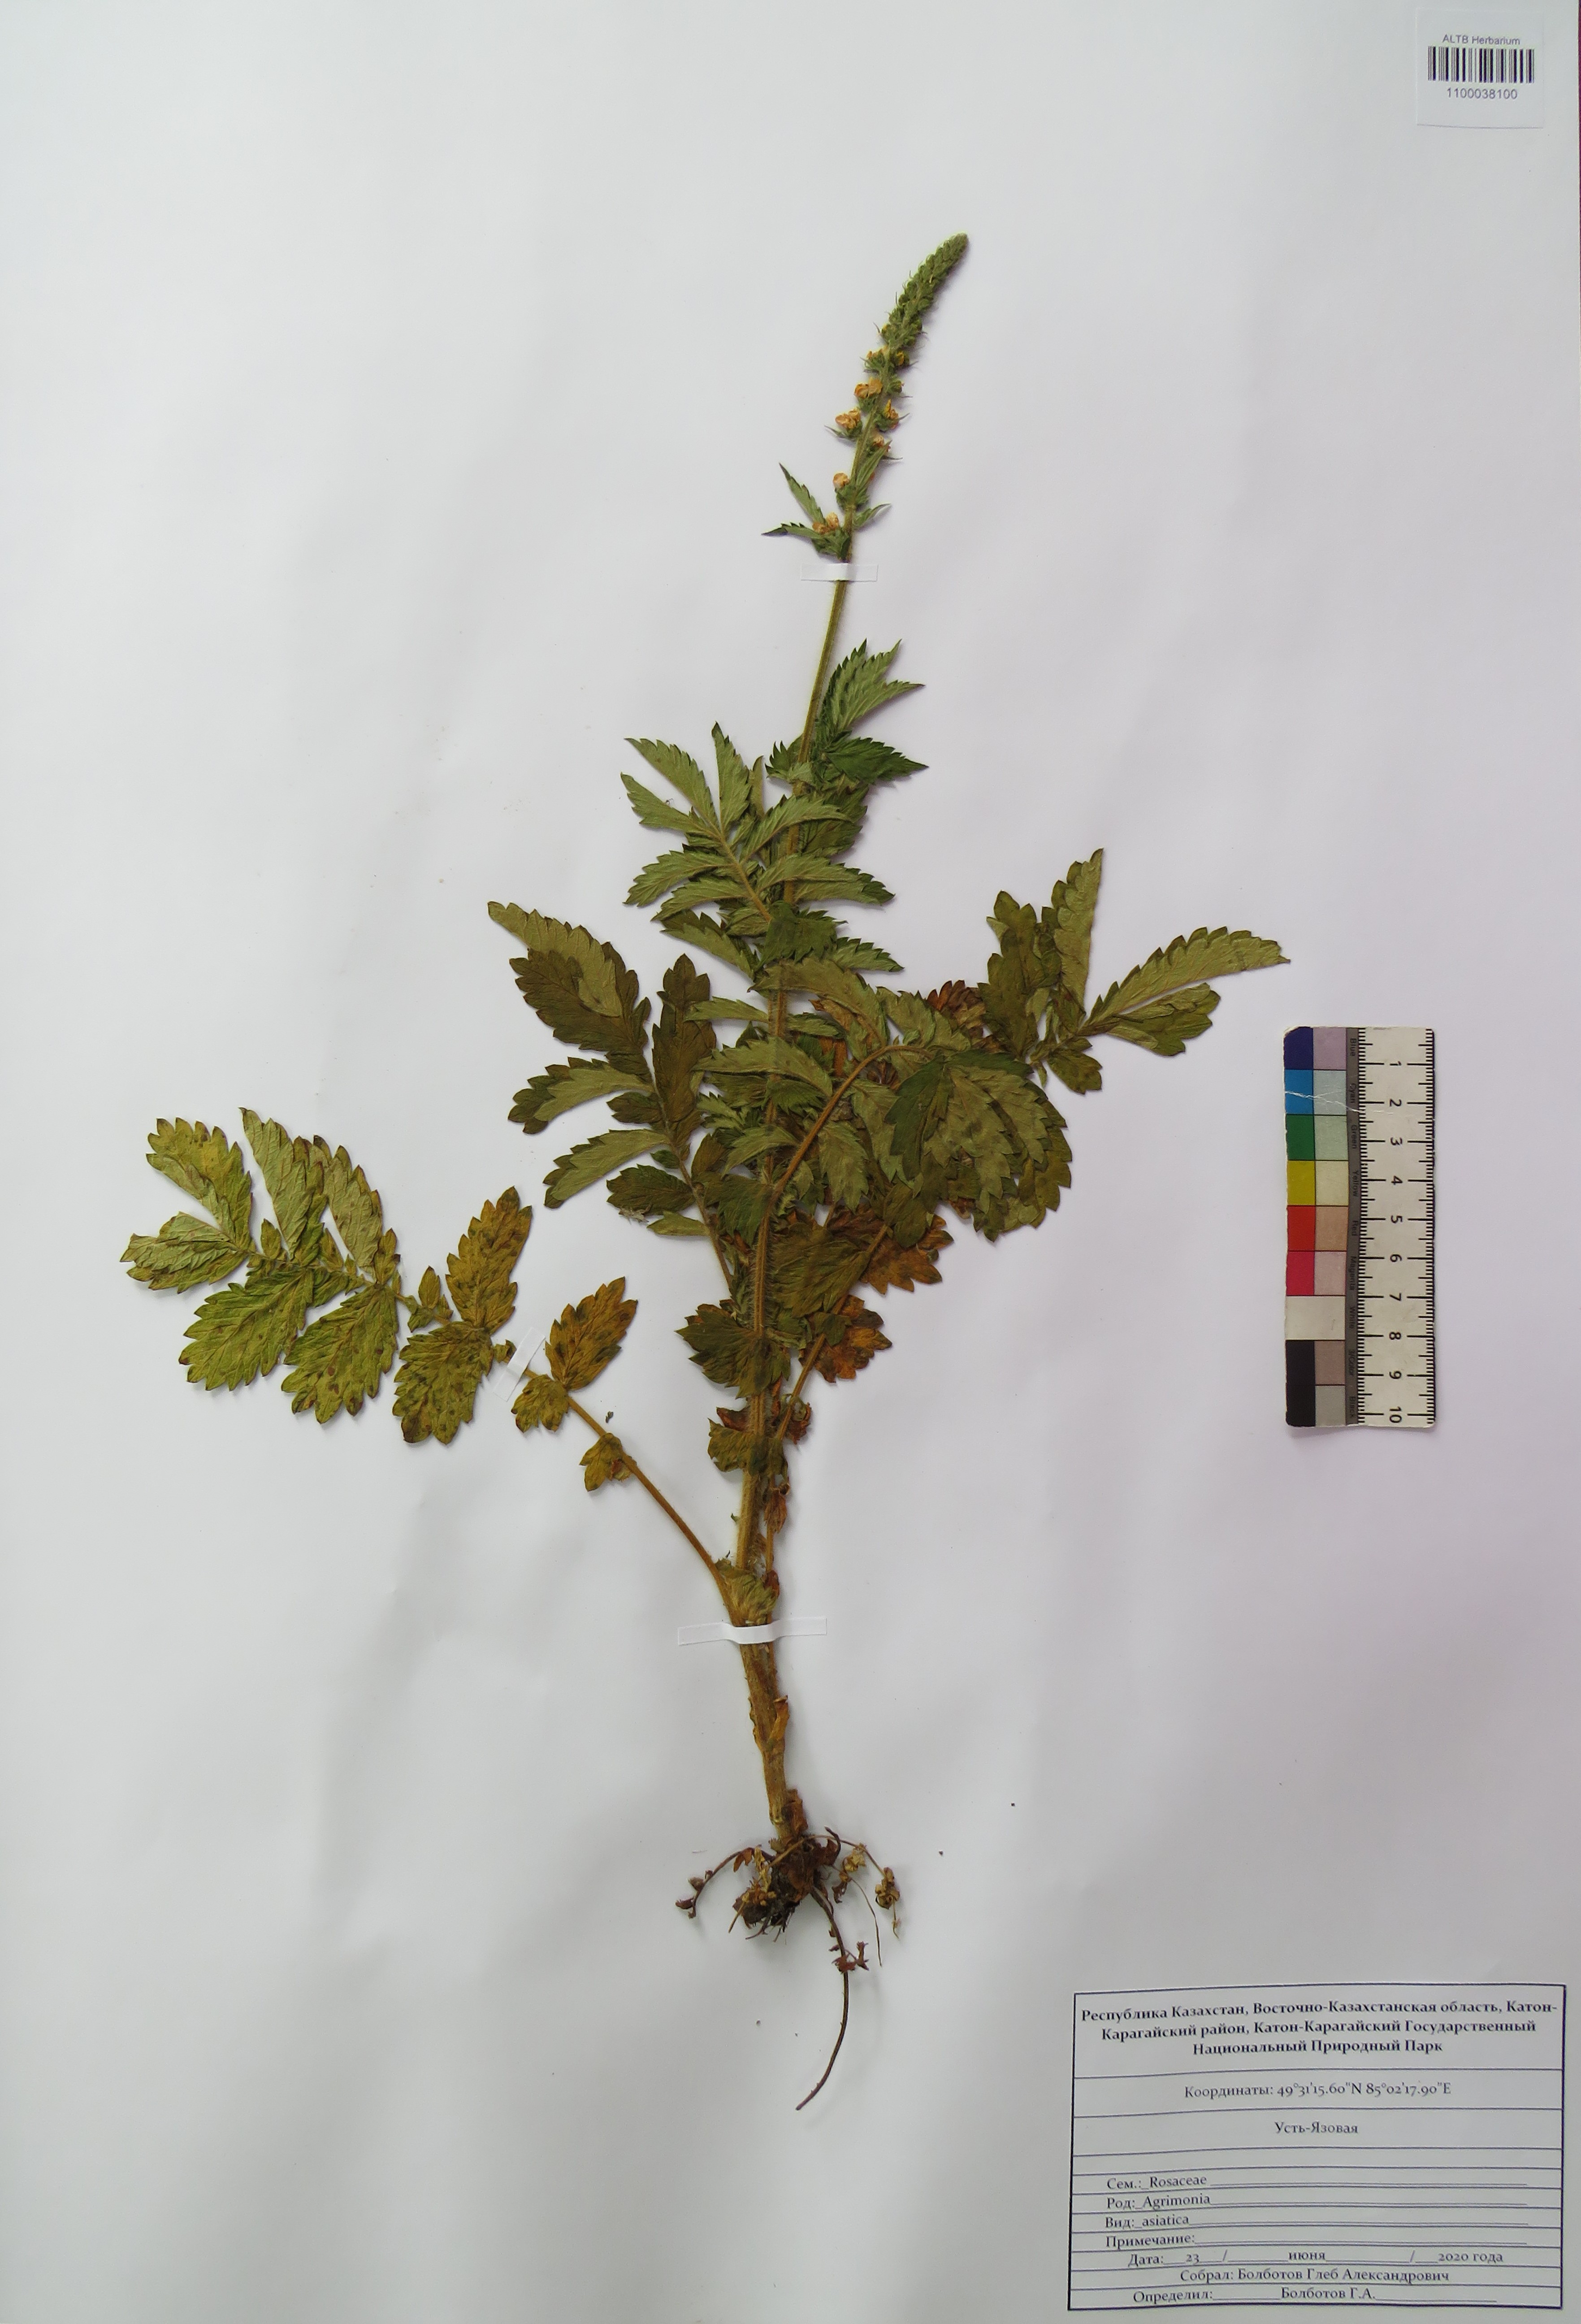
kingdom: Plantae
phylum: Tracheophyta
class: Magnoliopsida
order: Rosales
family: Rosaceae
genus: Agrimonia
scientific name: Agrimonia eupatoria
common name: Agrimony
